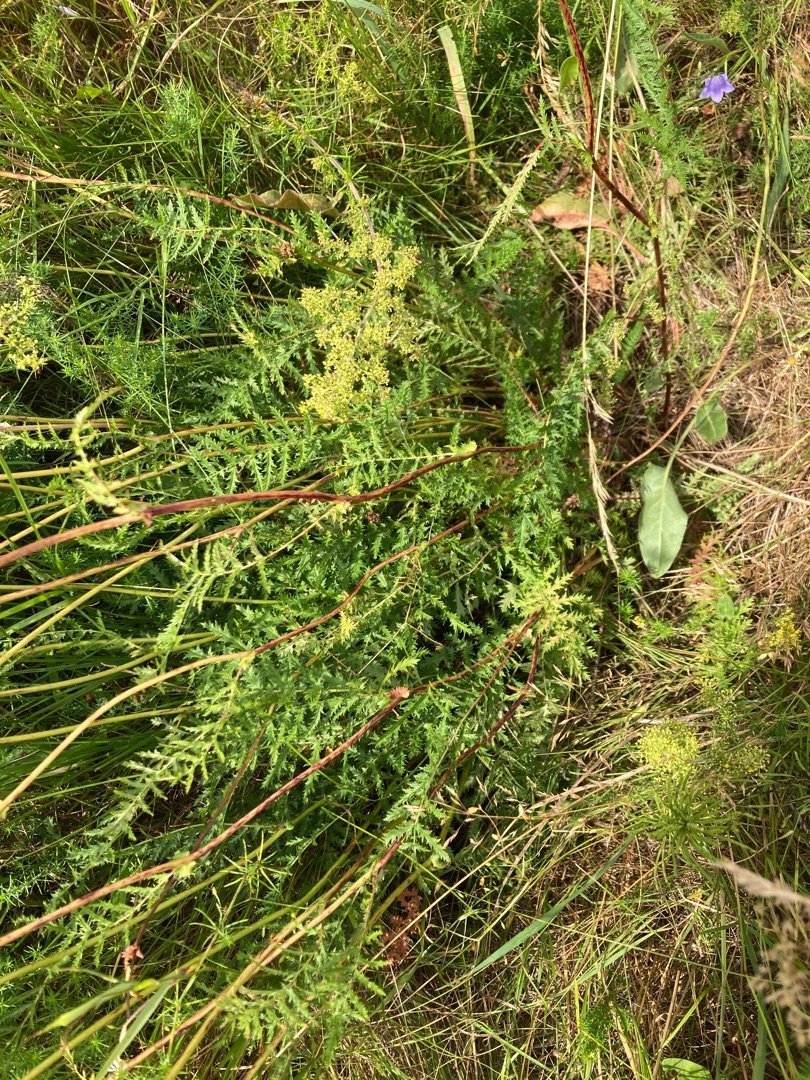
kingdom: Plantae
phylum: Tracheophyta
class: Magnoliopsida
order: Rosales
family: Rosaceae
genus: Filipendula
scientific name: Filipendula vulgaris
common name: Knoldet mjødurt
